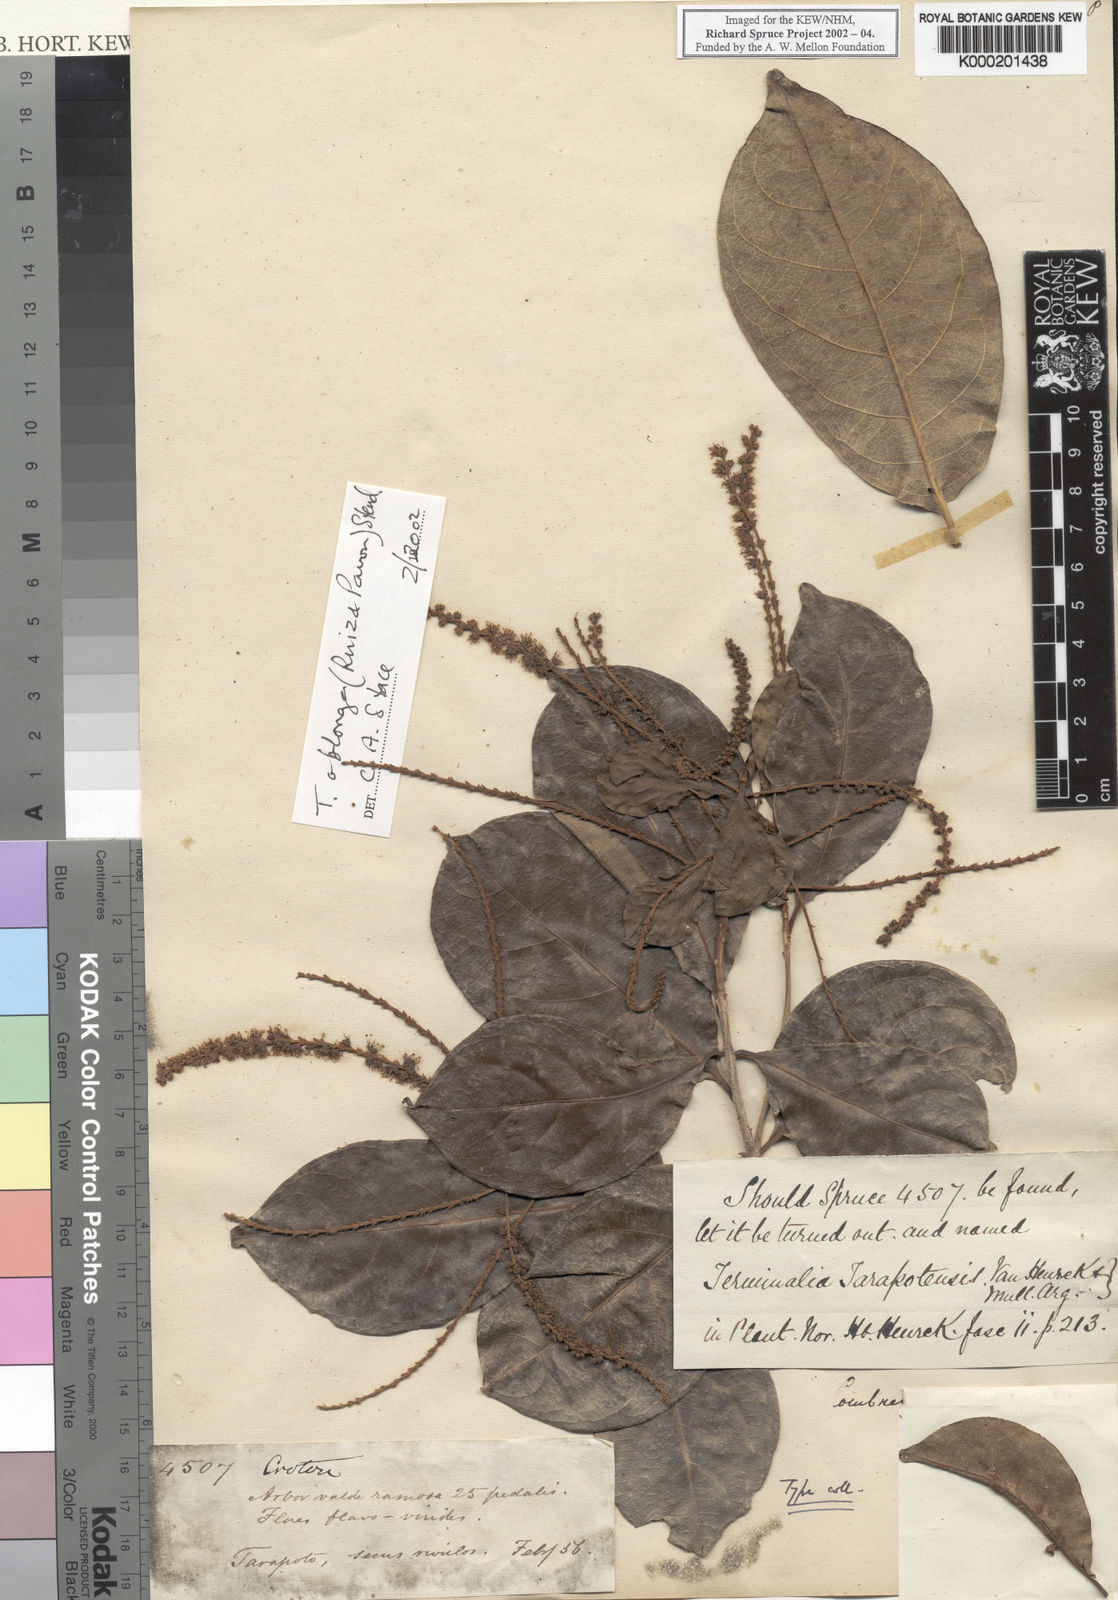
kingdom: Plantae
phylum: Tracheophyta
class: Magnoliopsida
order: Myrtales
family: Combretaceae
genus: Terminalia
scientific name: Terminalia oblonga
